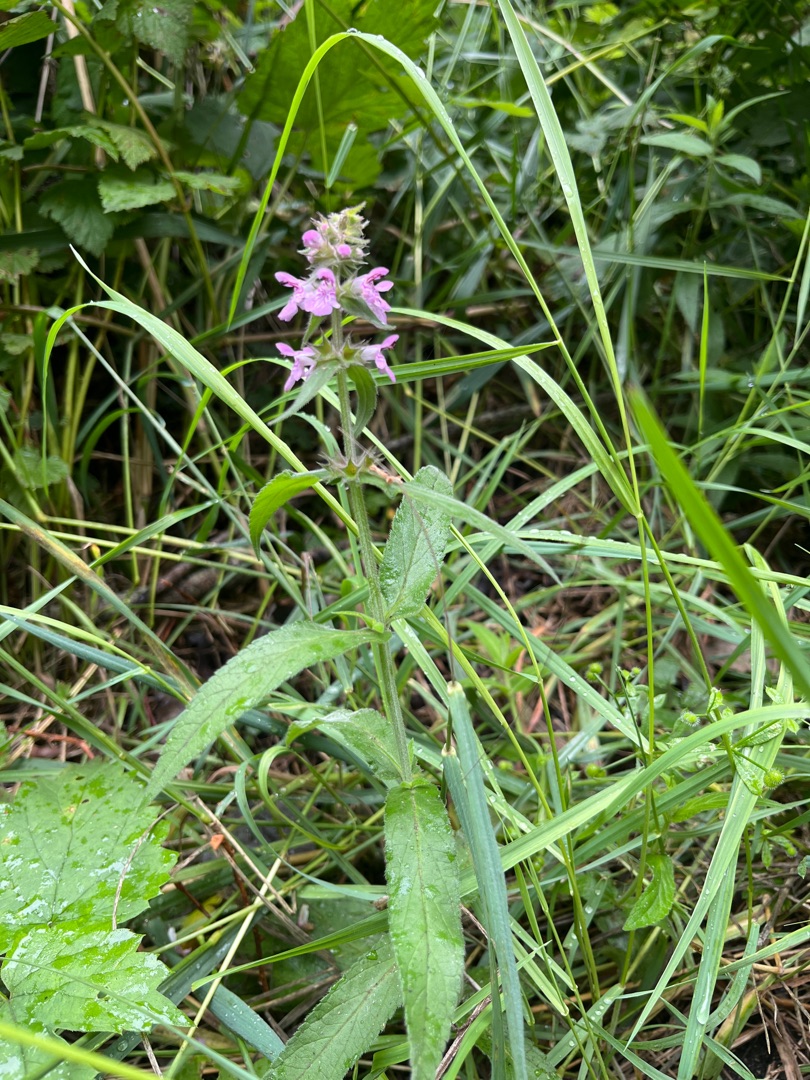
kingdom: Plantae
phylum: Tracheophyta
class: Magnoliopsida
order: Lamiales
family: Lamiaceae
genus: Stachys
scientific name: Stachys palustris
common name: Kær-galtetand
